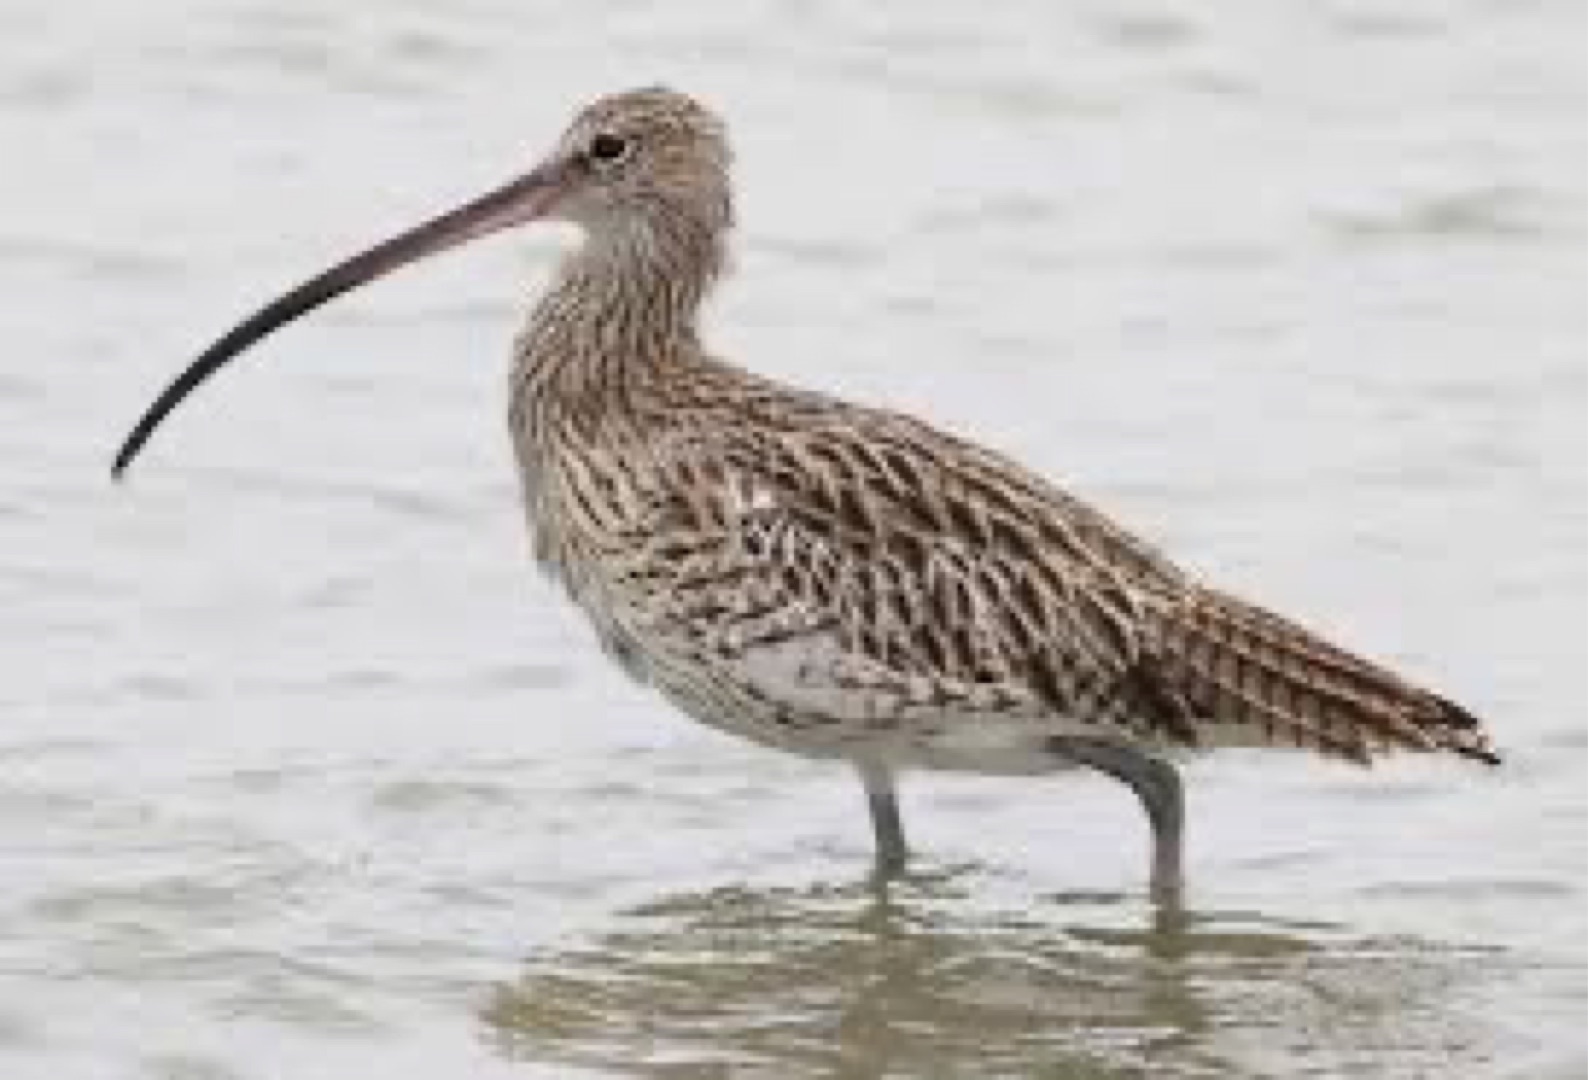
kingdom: Animalia
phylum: Chordata
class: Aves
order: Charadriiformes
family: Scolopacidae
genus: Numenius
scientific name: Numenius arquata
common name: Storspove
